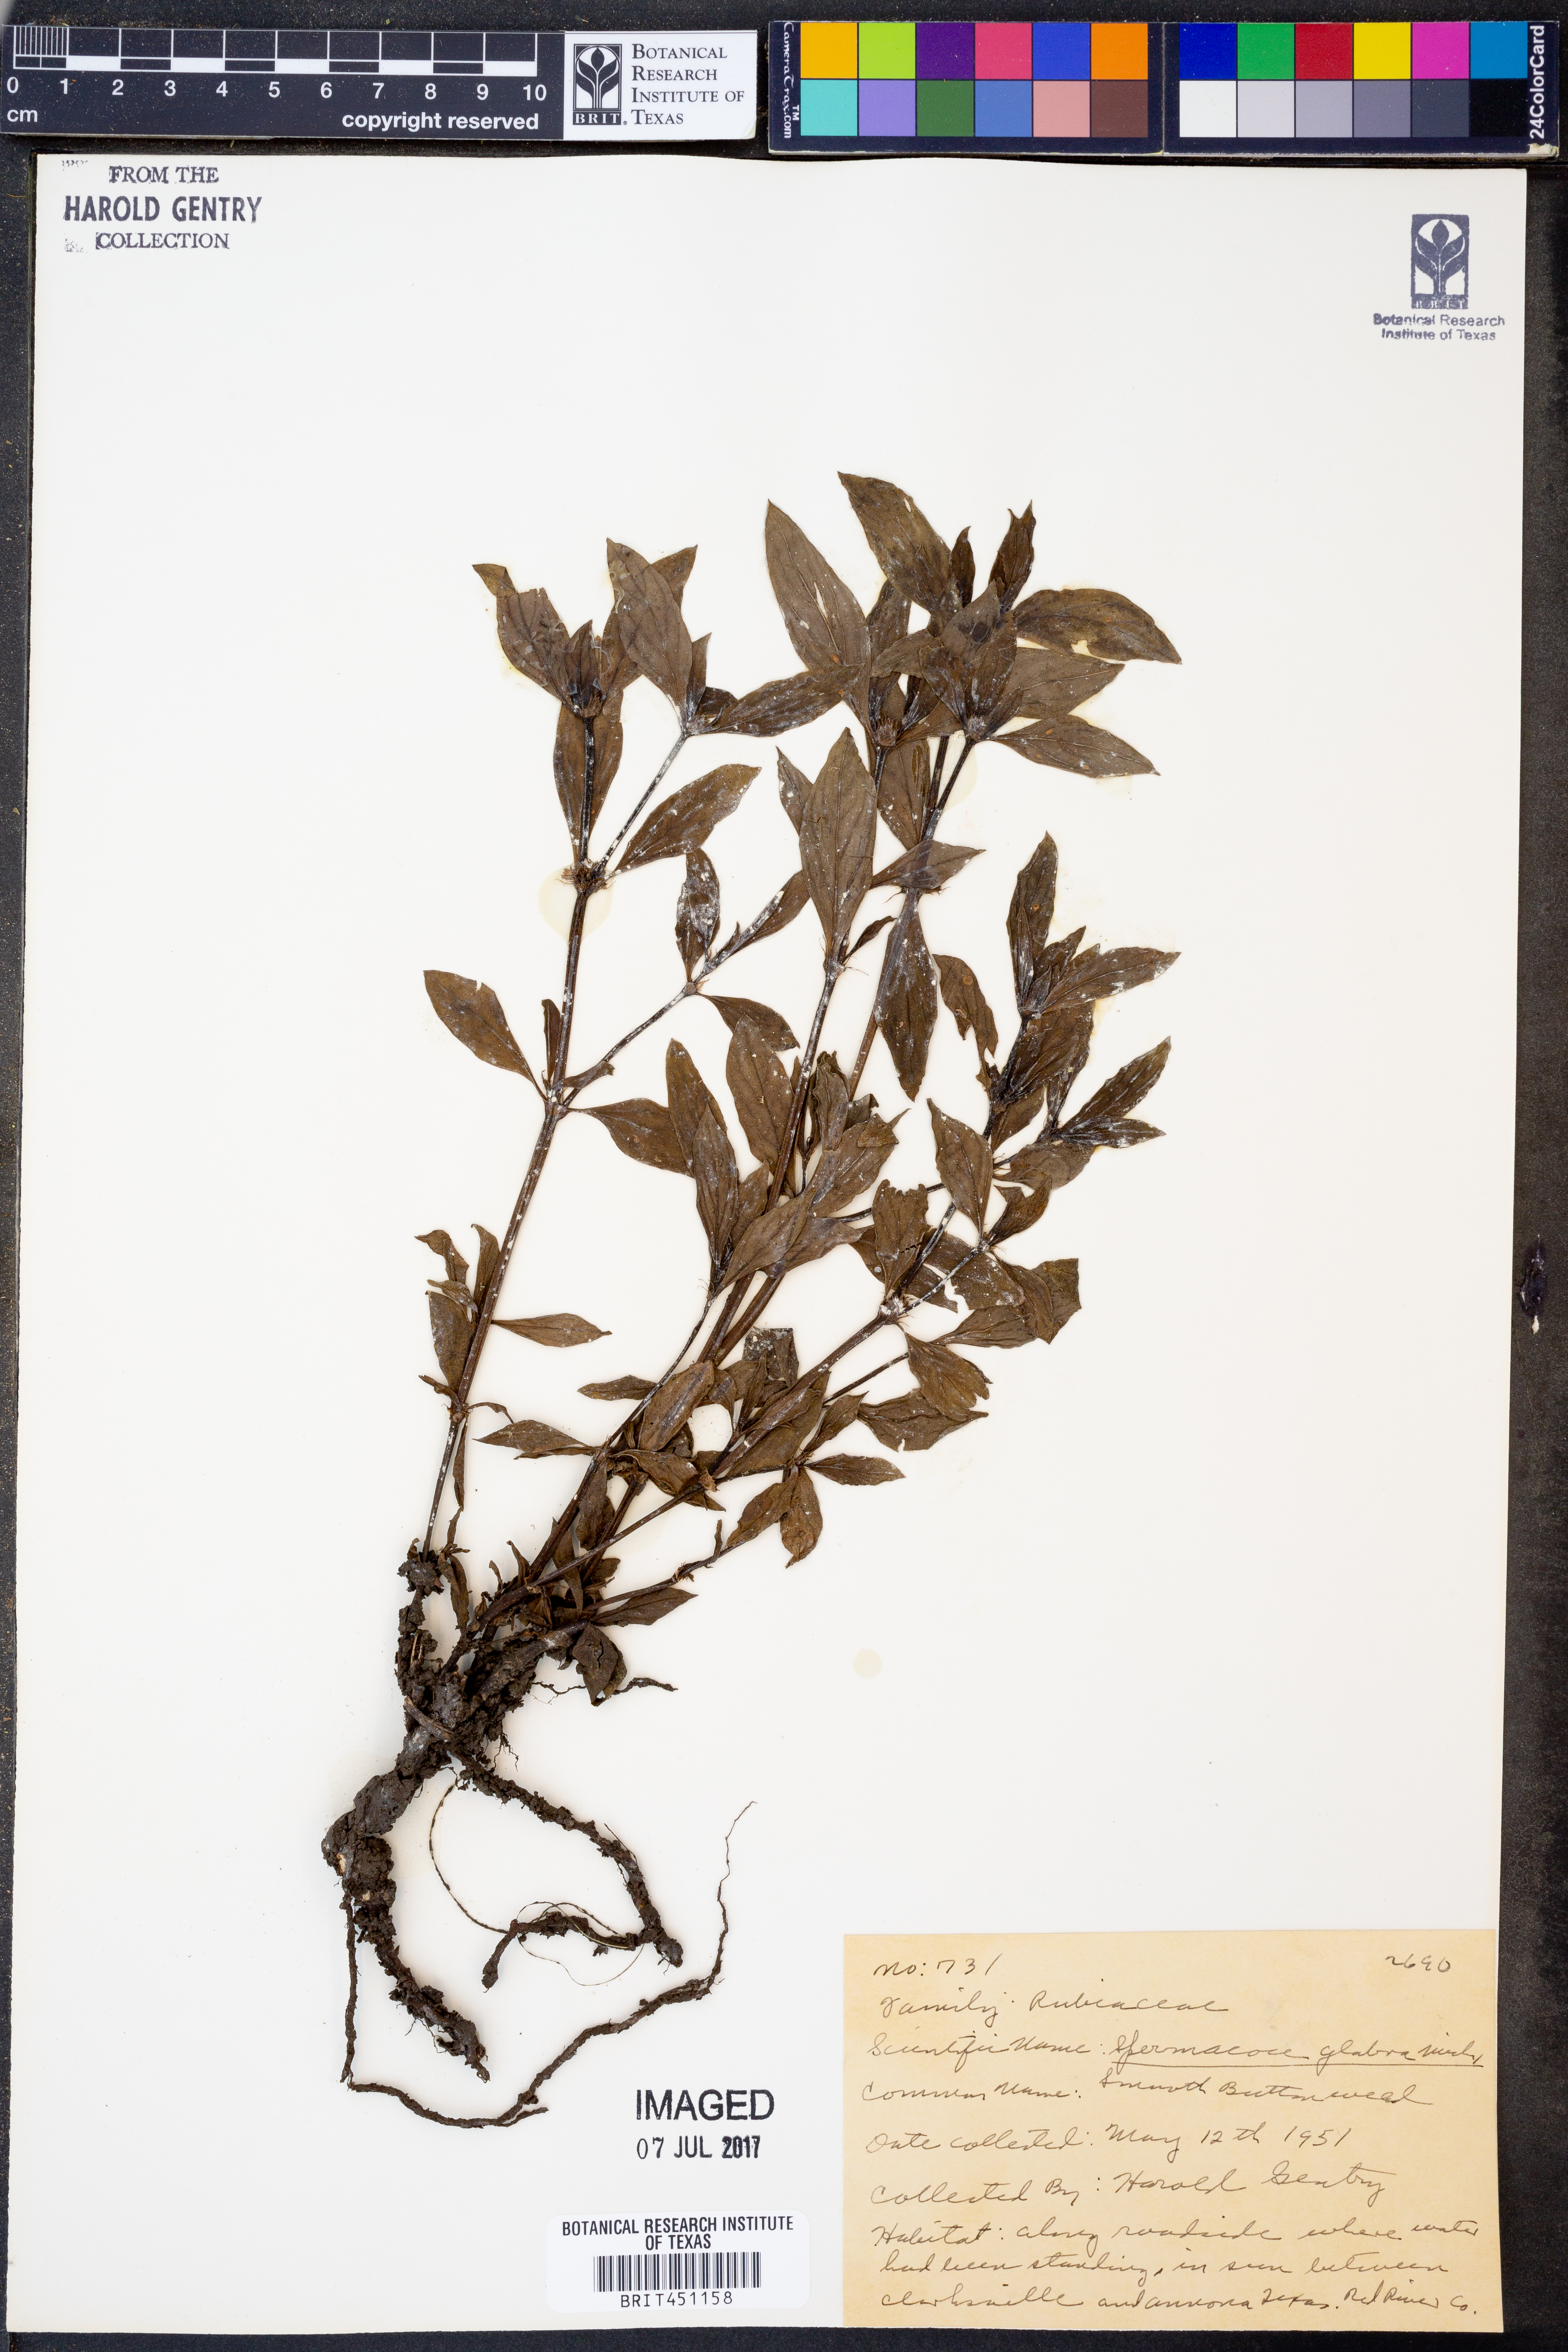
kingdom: Plantae
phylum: Tracheophyta
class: Magnoliopsida
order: Gentianales
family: Rubiaceae
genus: Spermacoce
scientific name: Spermacoce glabra
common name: Smooth buttonweed
